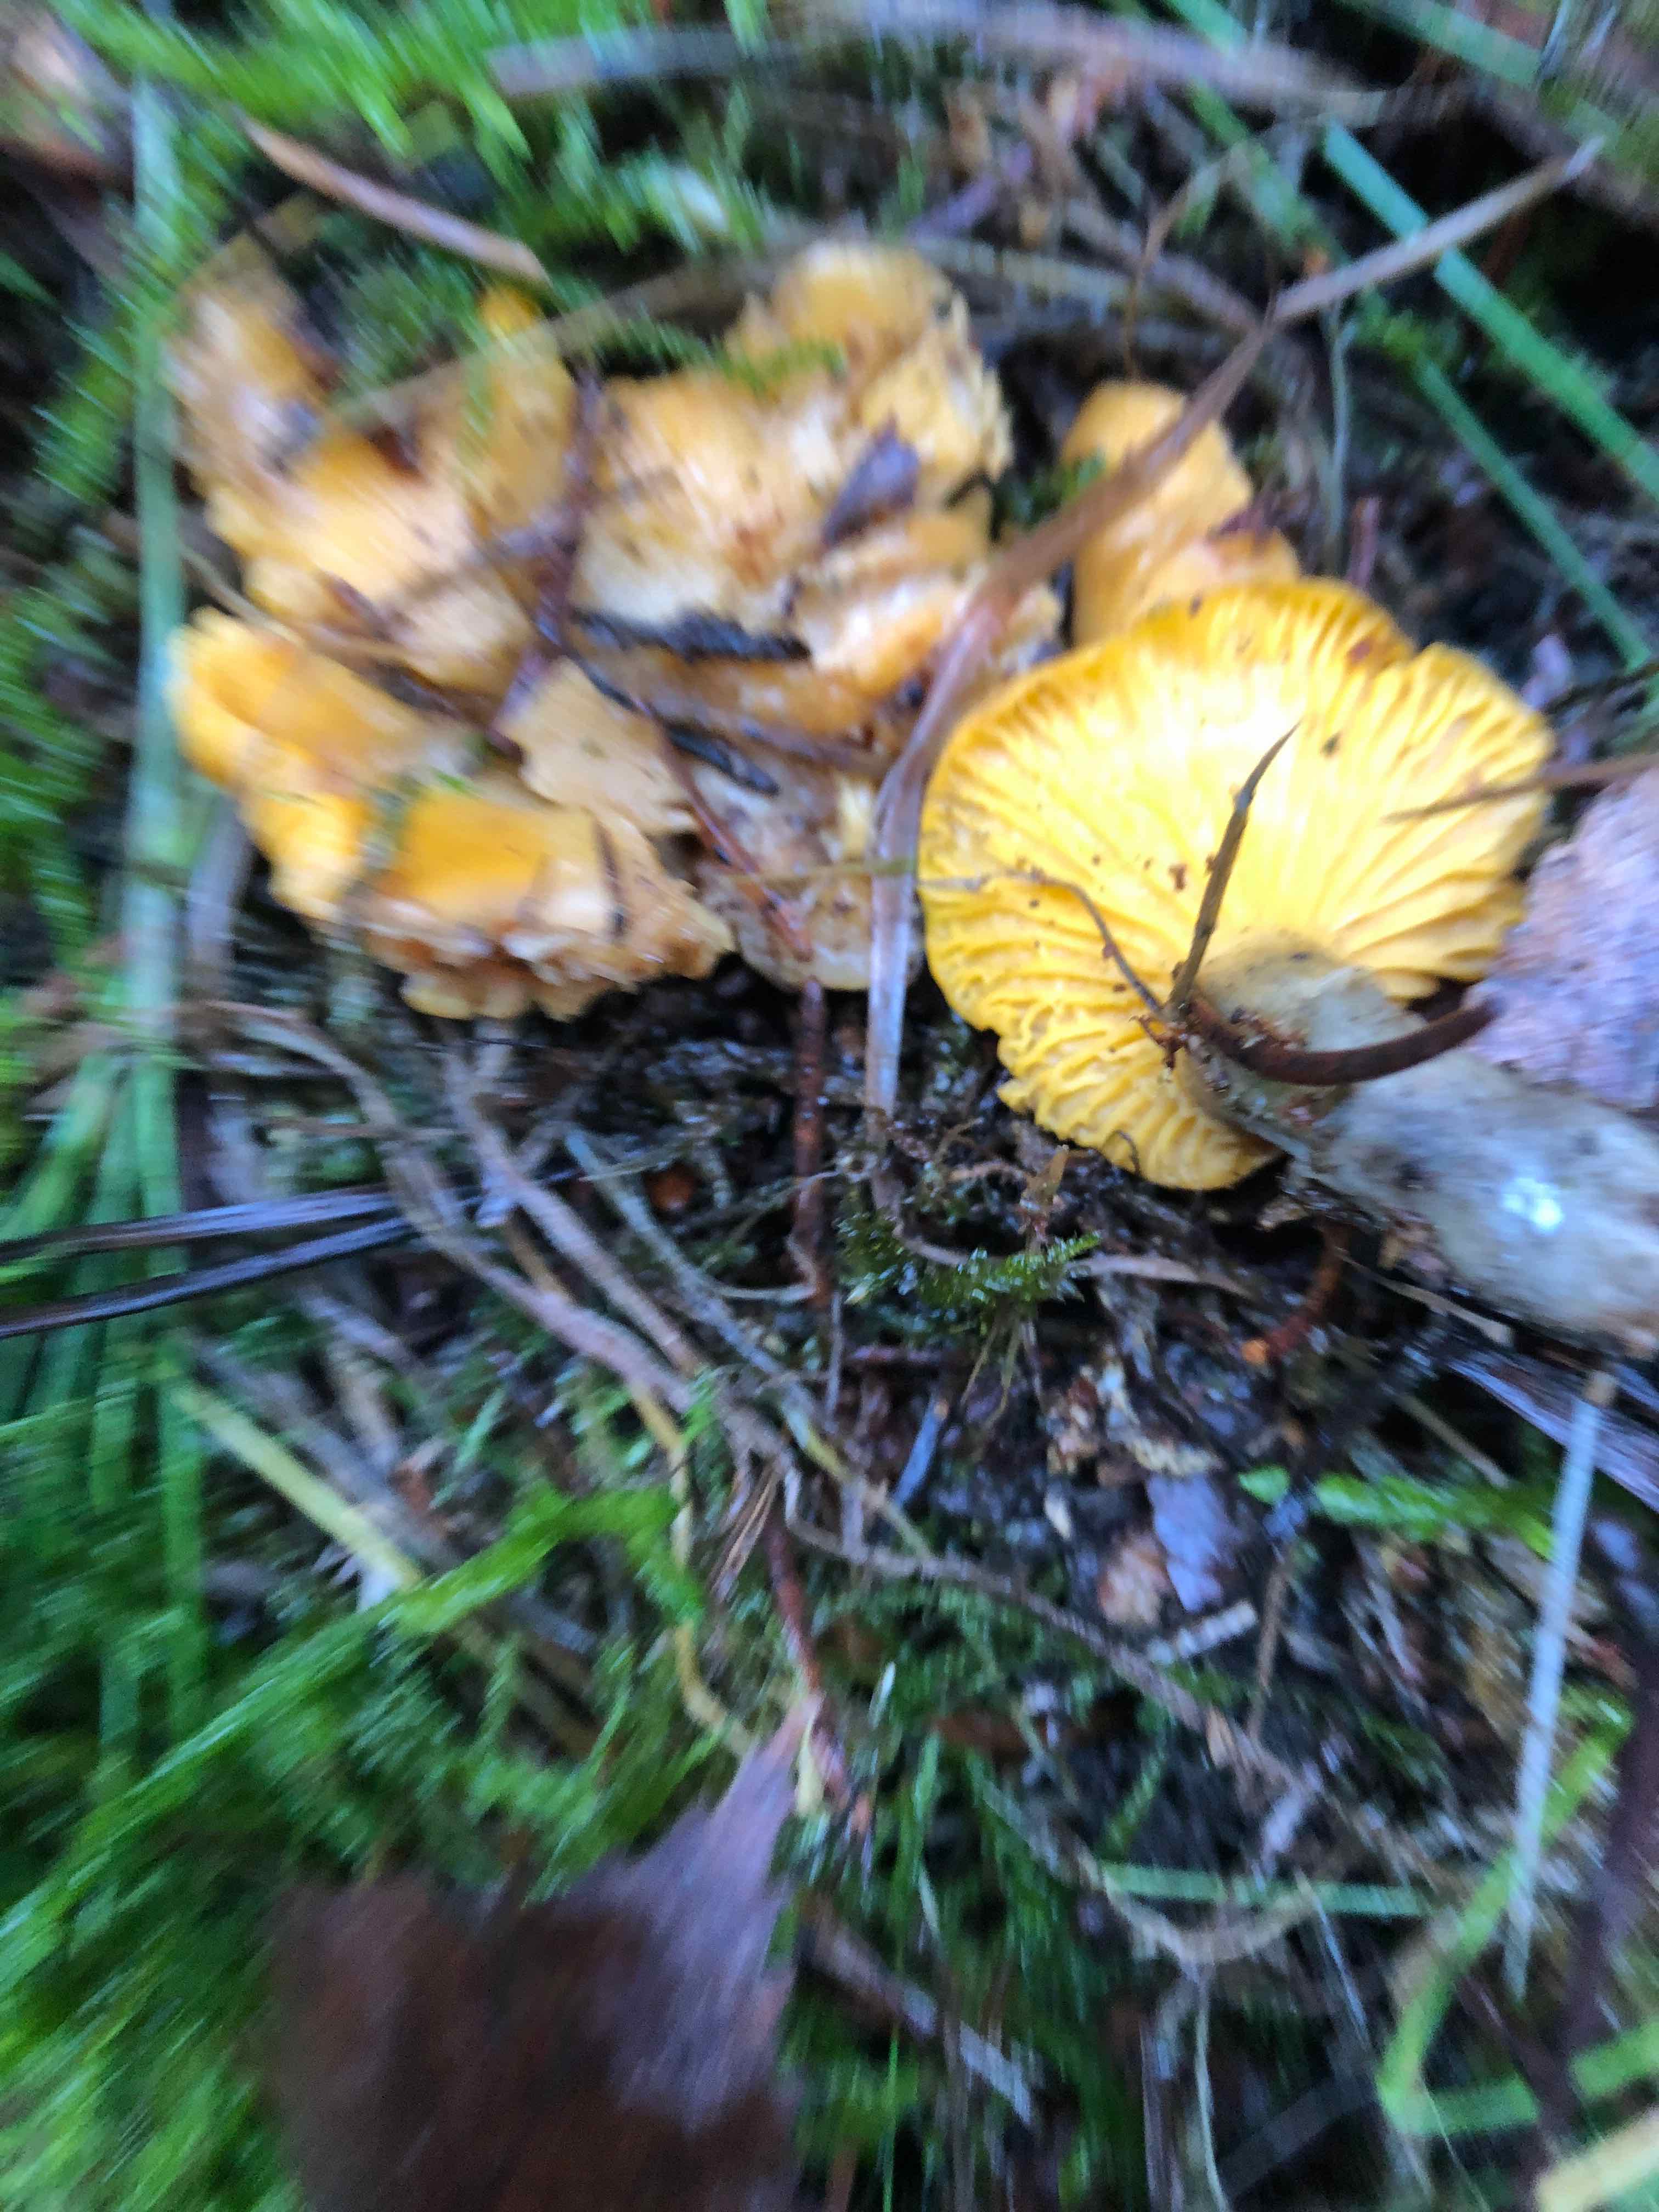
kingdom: Fungi
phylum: Basidiomycota
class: Agaricomycetes
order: Cantharellales
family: Hydnaceae
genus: Cantharellus
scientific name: Cantharellus cibarius
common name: almindelig kantarel
